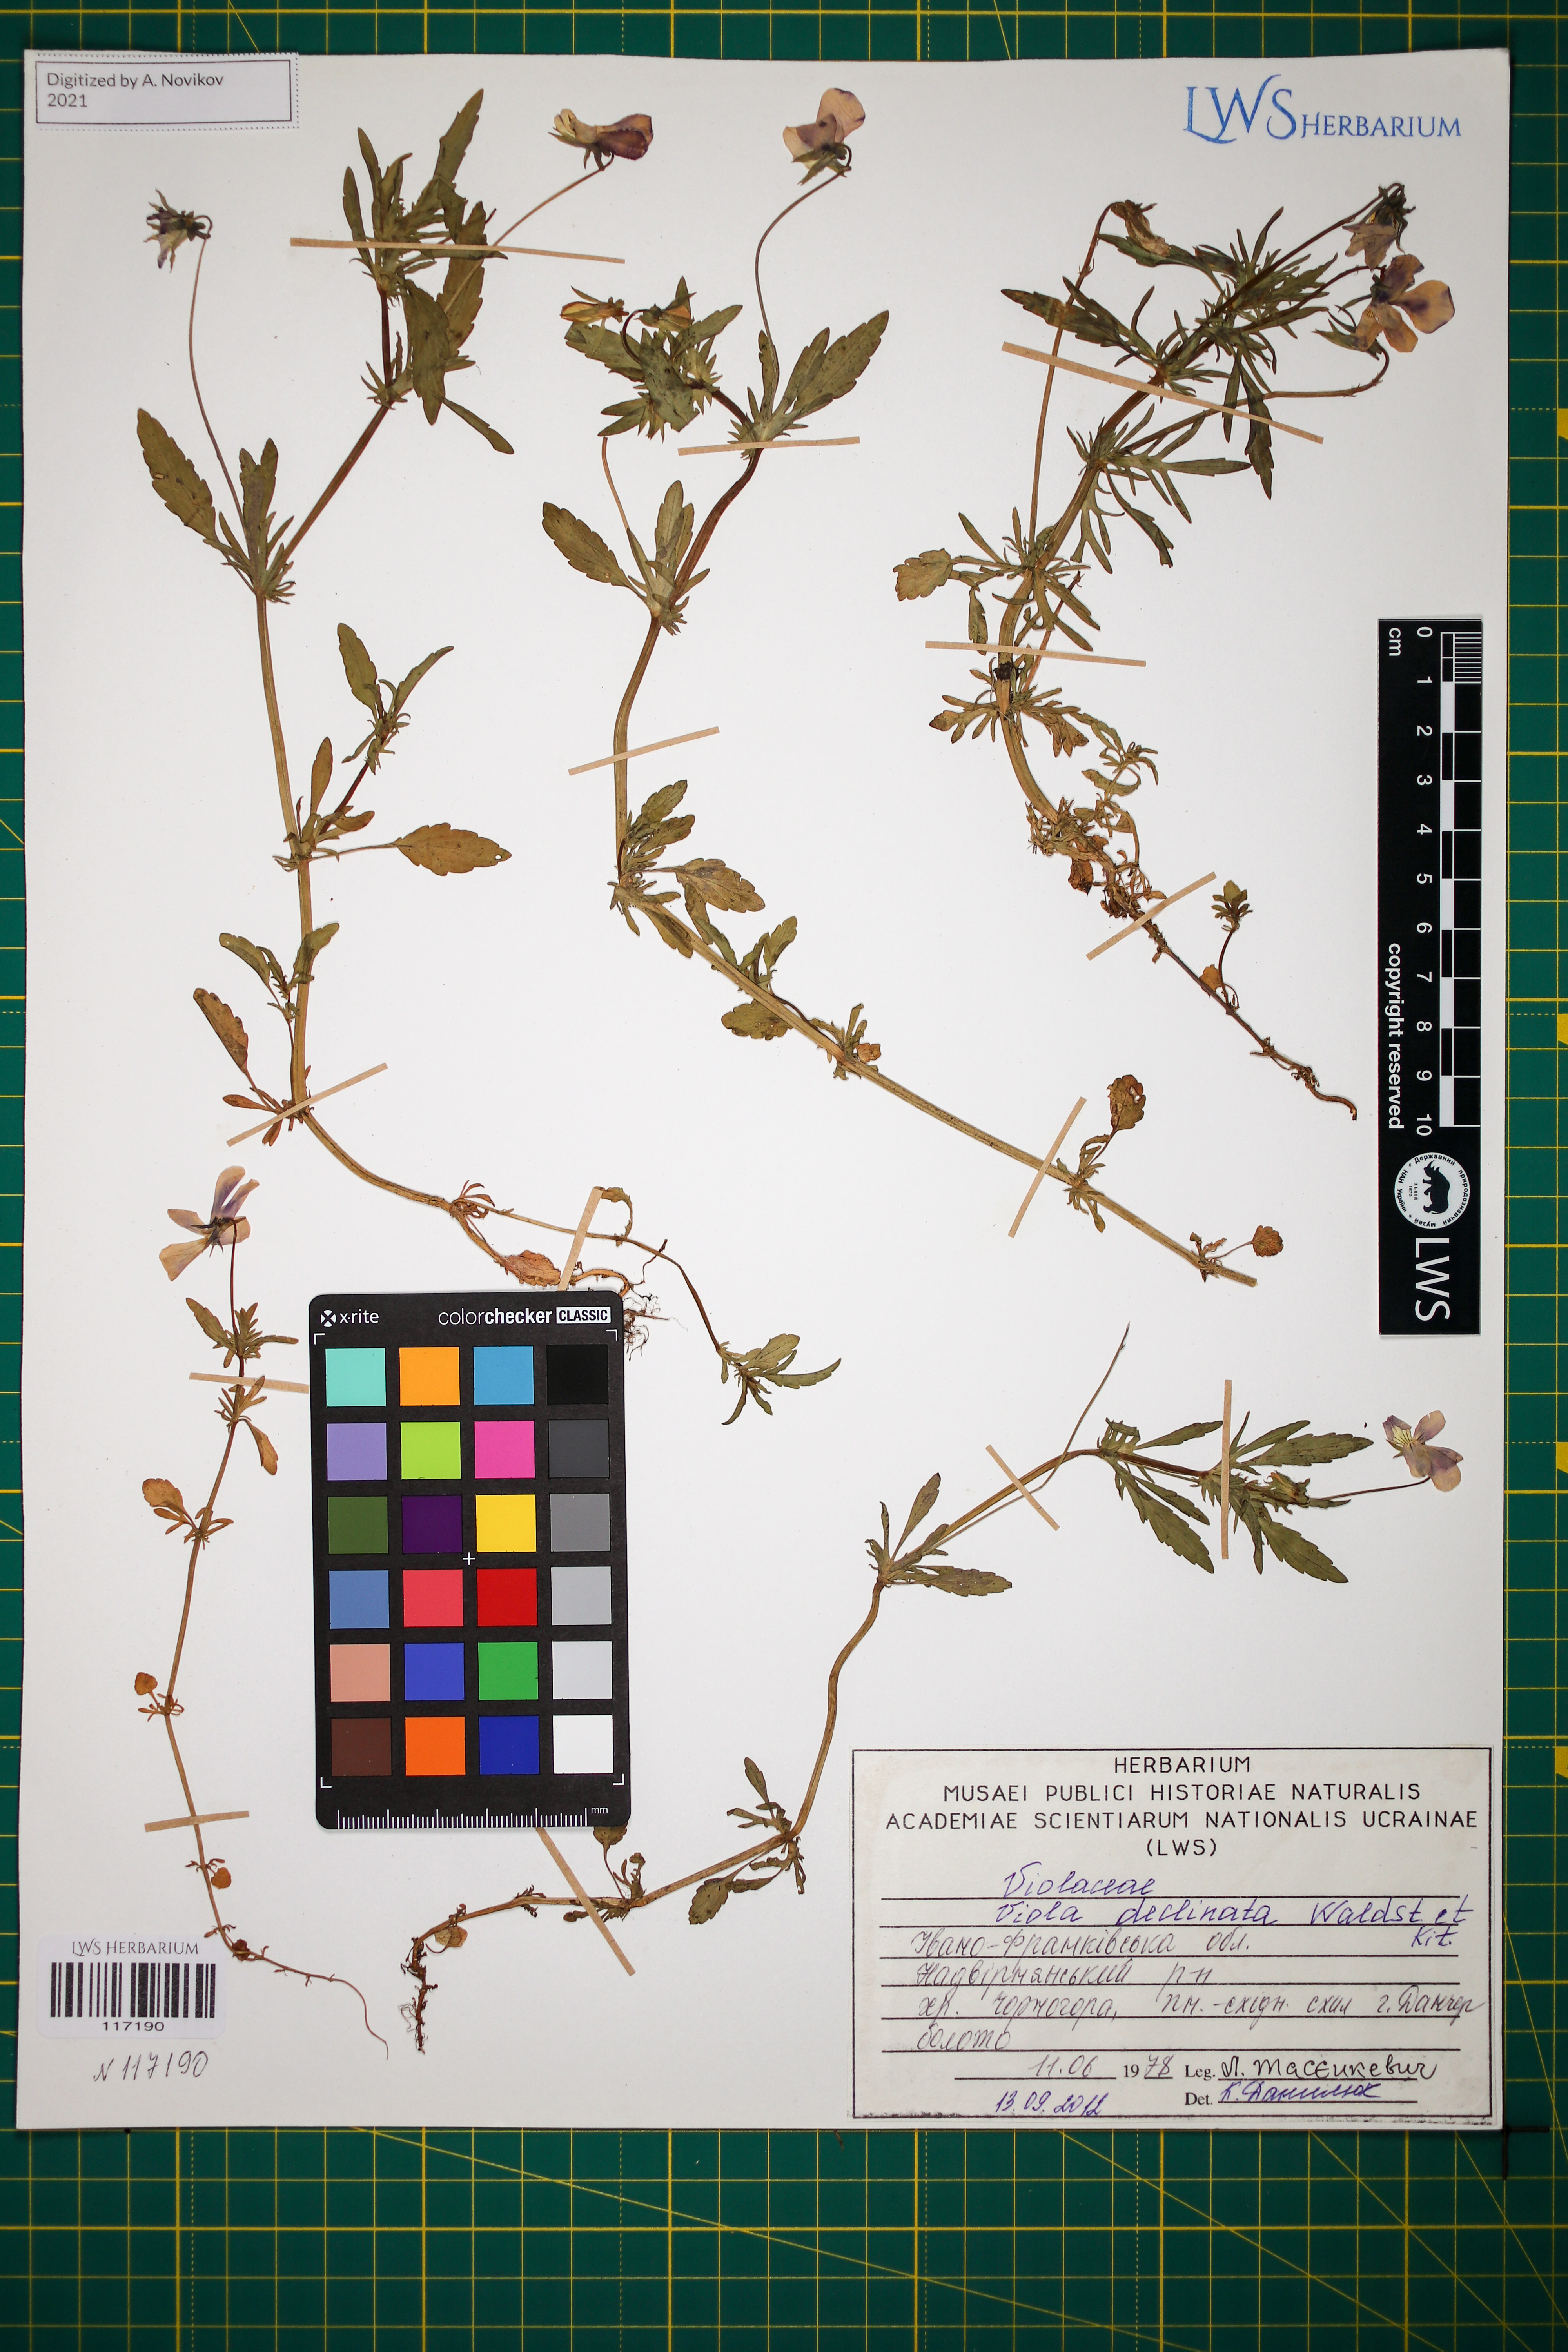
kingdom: Plantae
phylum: Tracheophyta
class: Magnoliopsida
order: Malpighiales
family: Violaceae
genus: Viola
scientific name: Viola declinata
